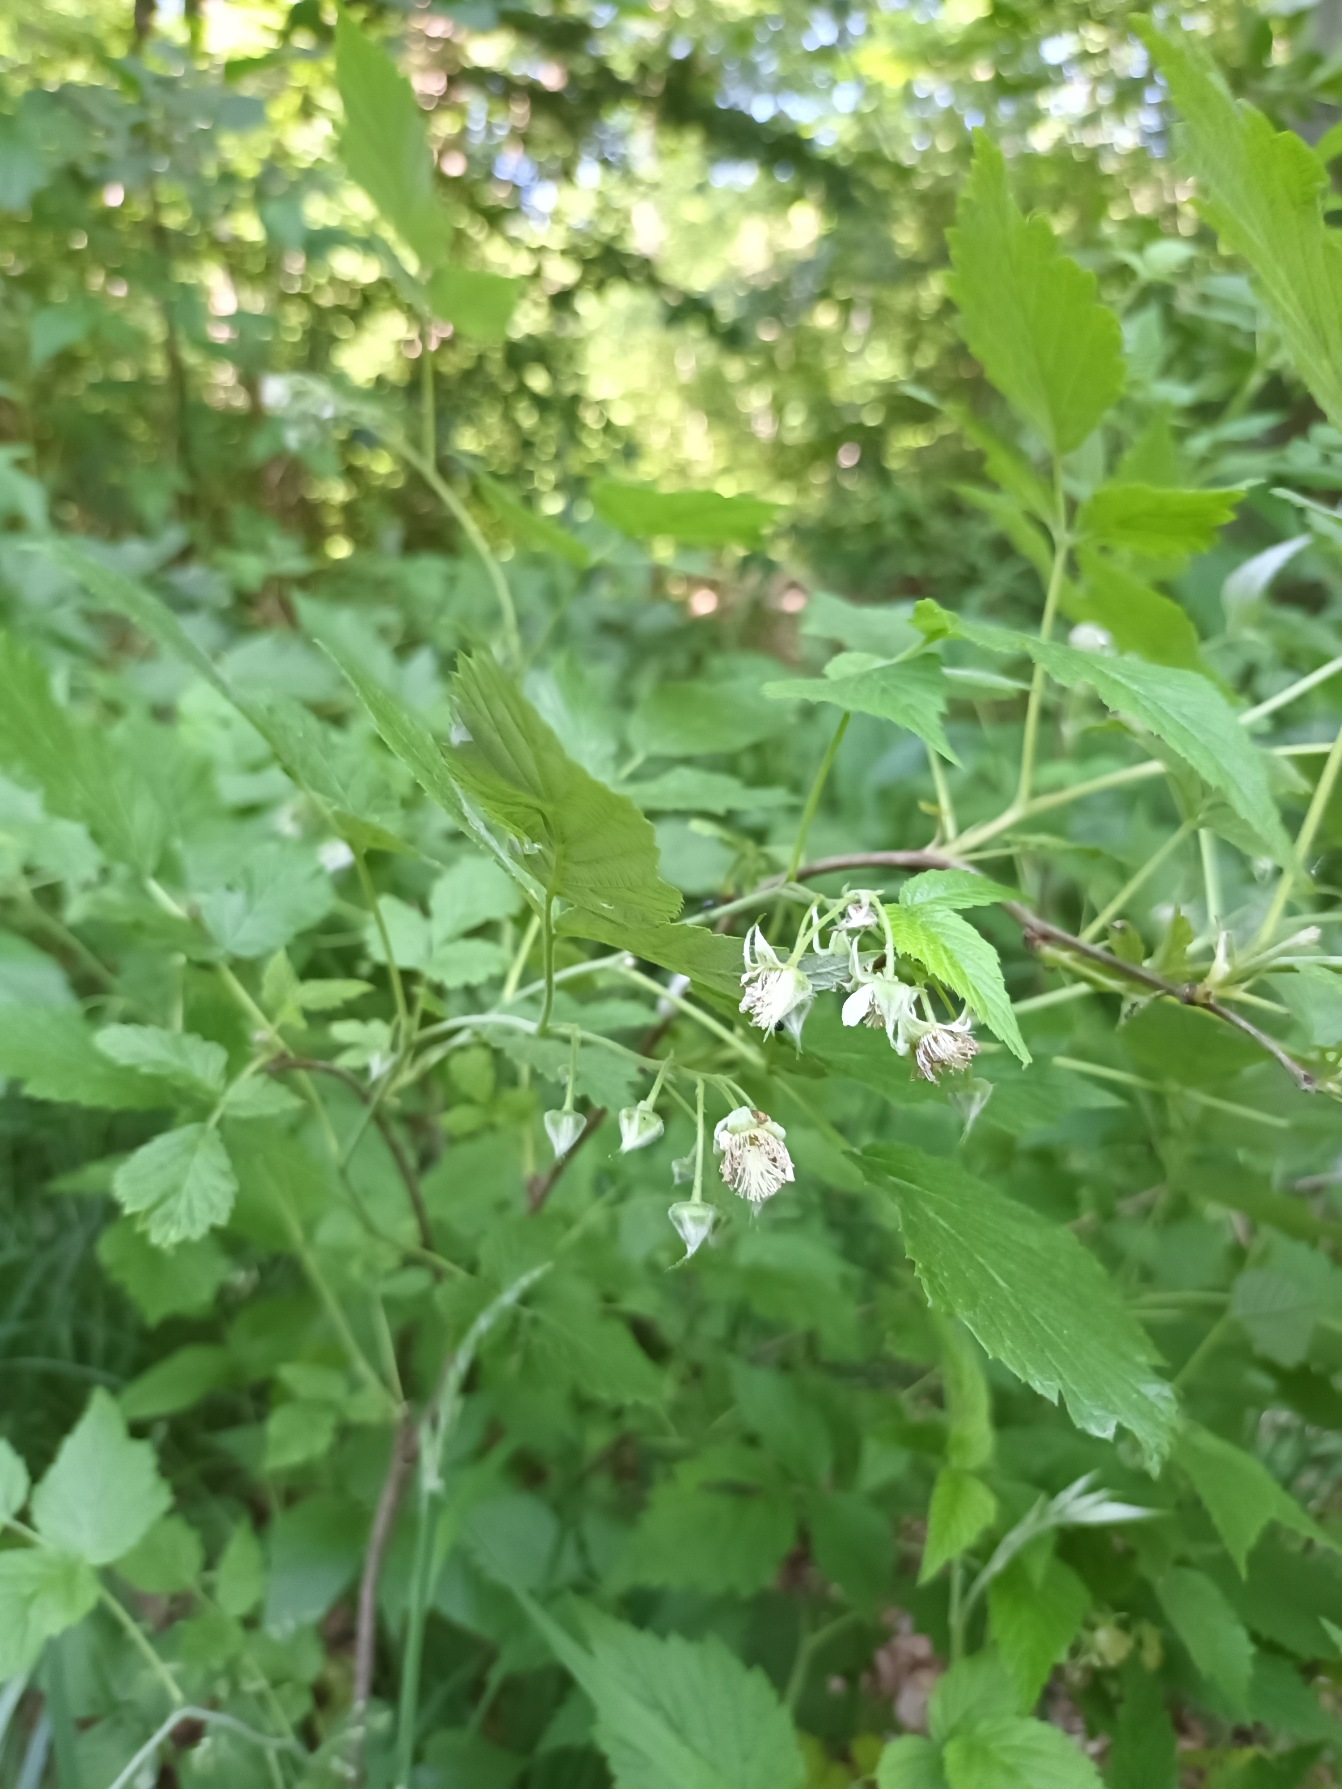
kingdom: Plantae
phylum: Tracheophyta
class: Magnoliopsida
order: Rosales
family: Rosaceae
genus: Rubus
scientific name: Rubus idaeus
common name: Hindbær
